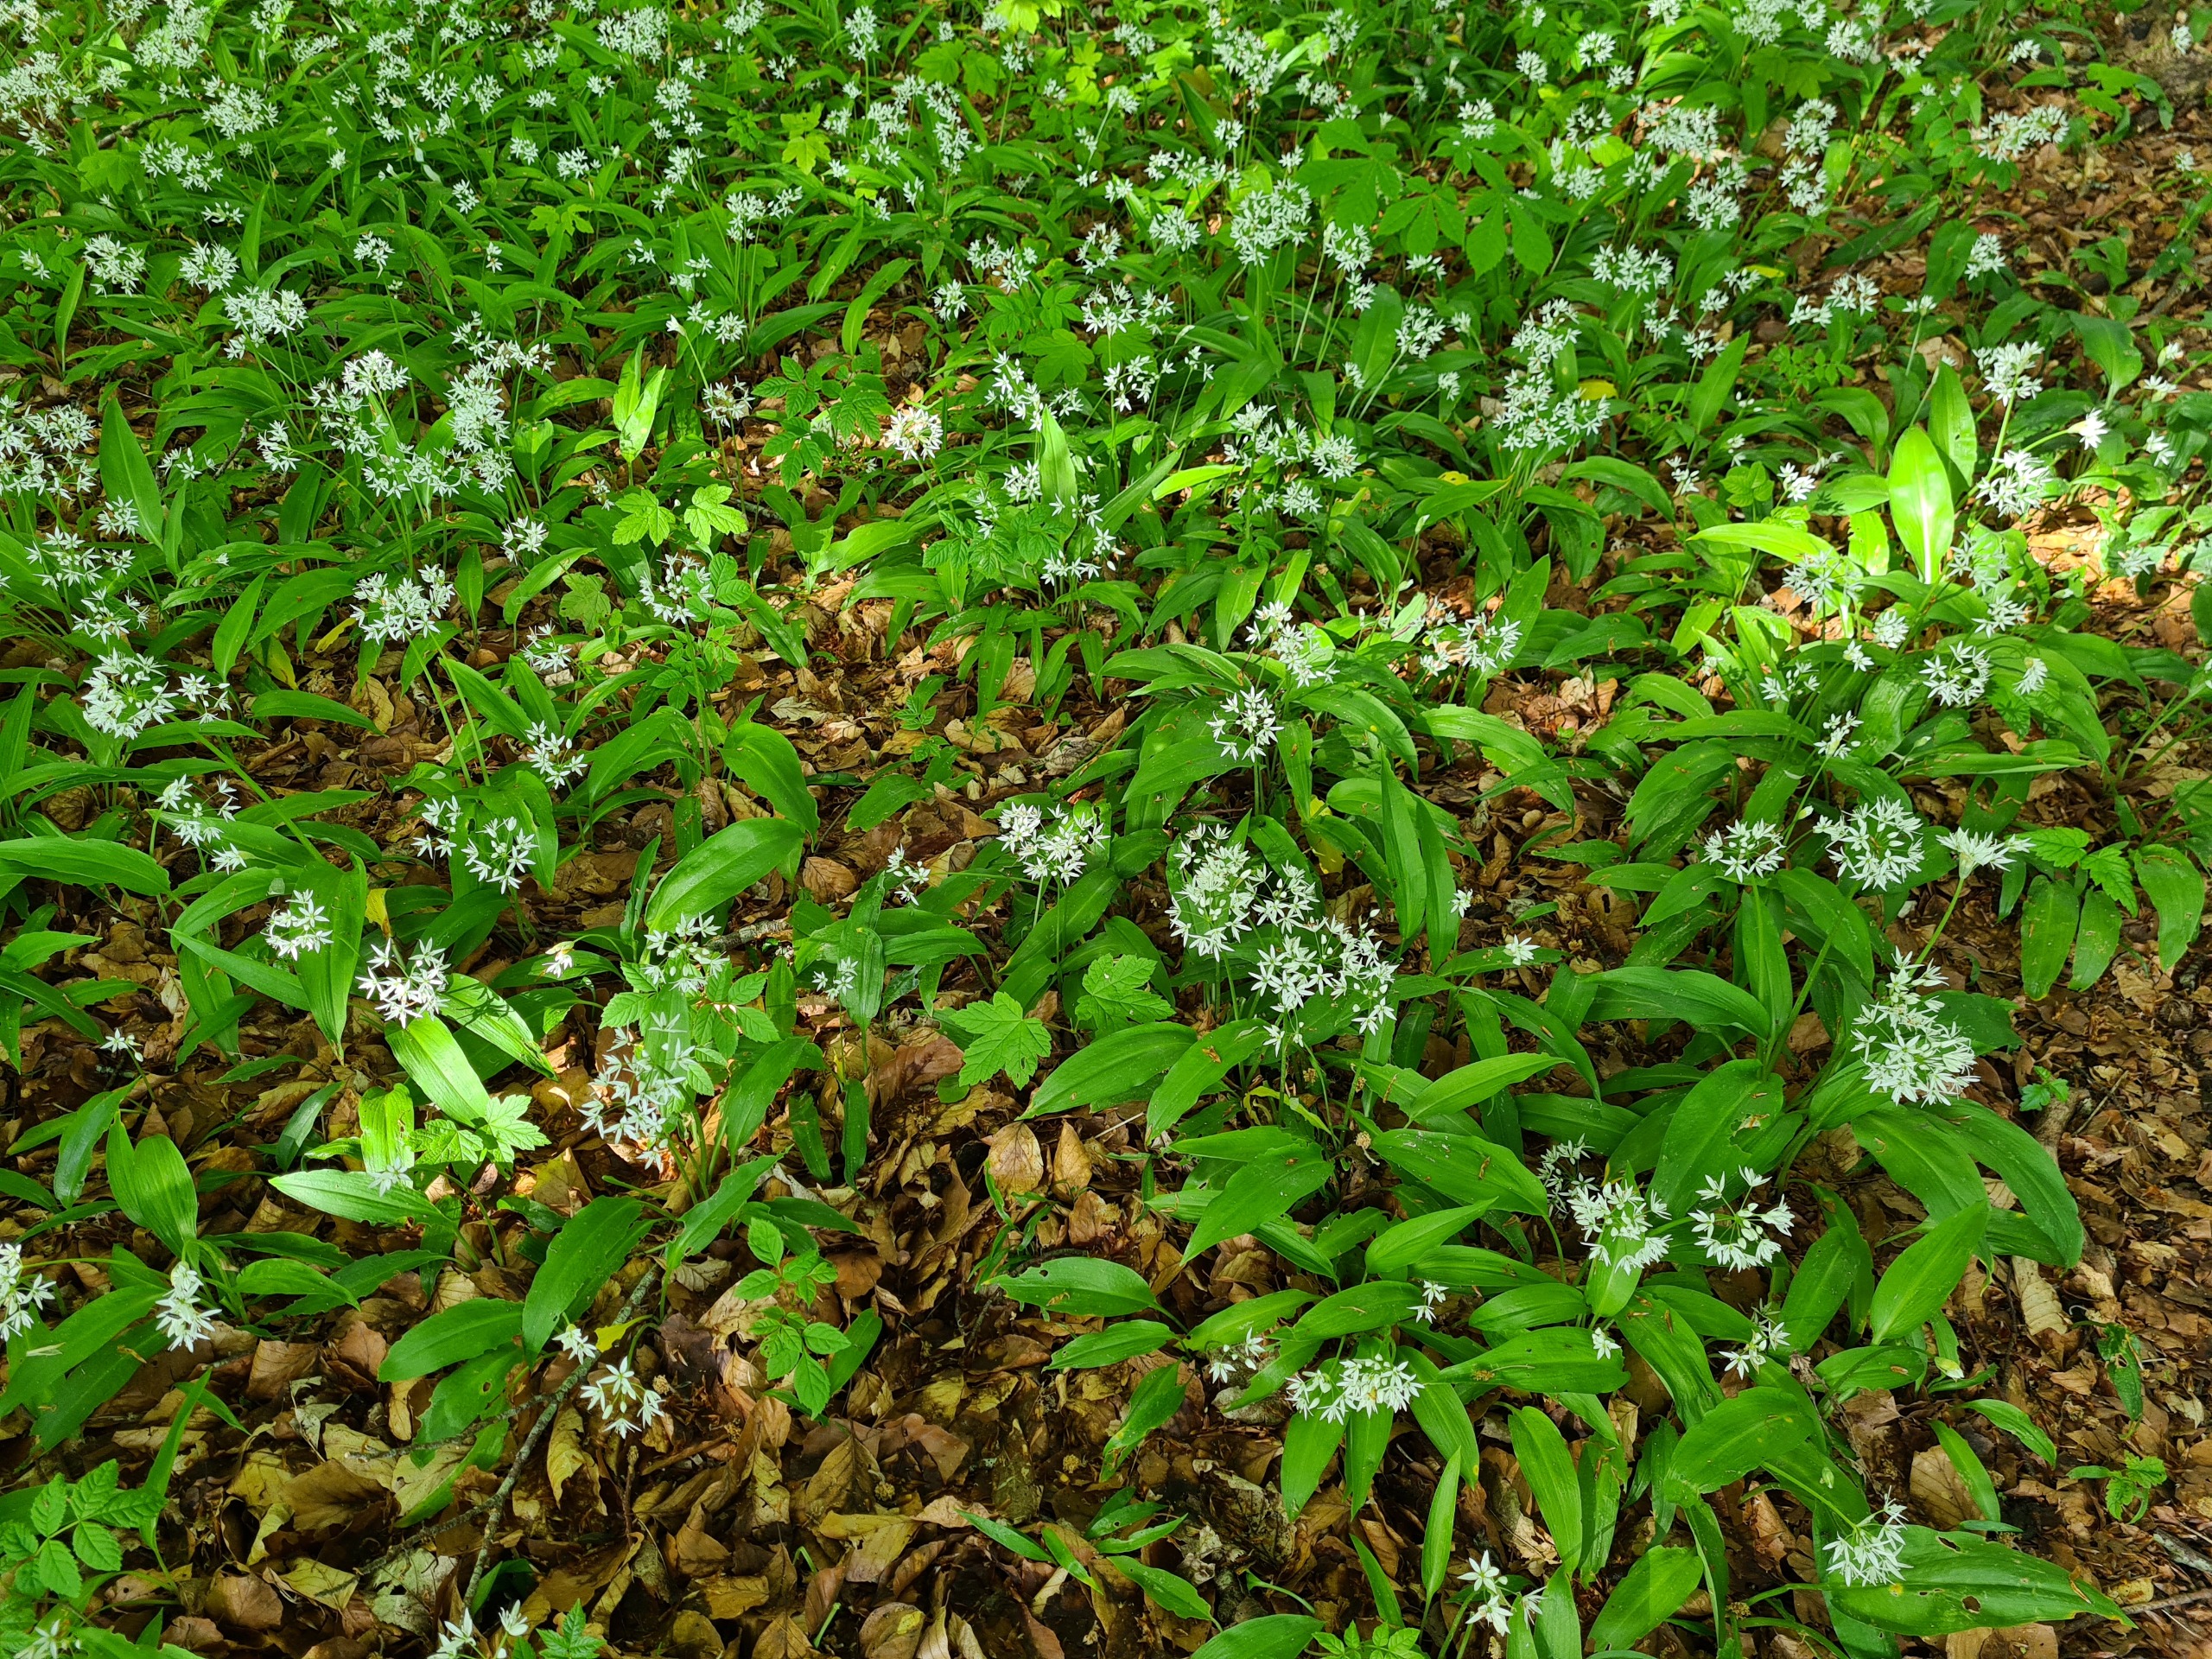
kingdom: Plantae
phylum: Tracheophyta
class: Liliopsida
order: Asparagales
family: Amaryllidaceae
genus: Allium
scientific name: Allium ursinum
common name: Rams-løg
